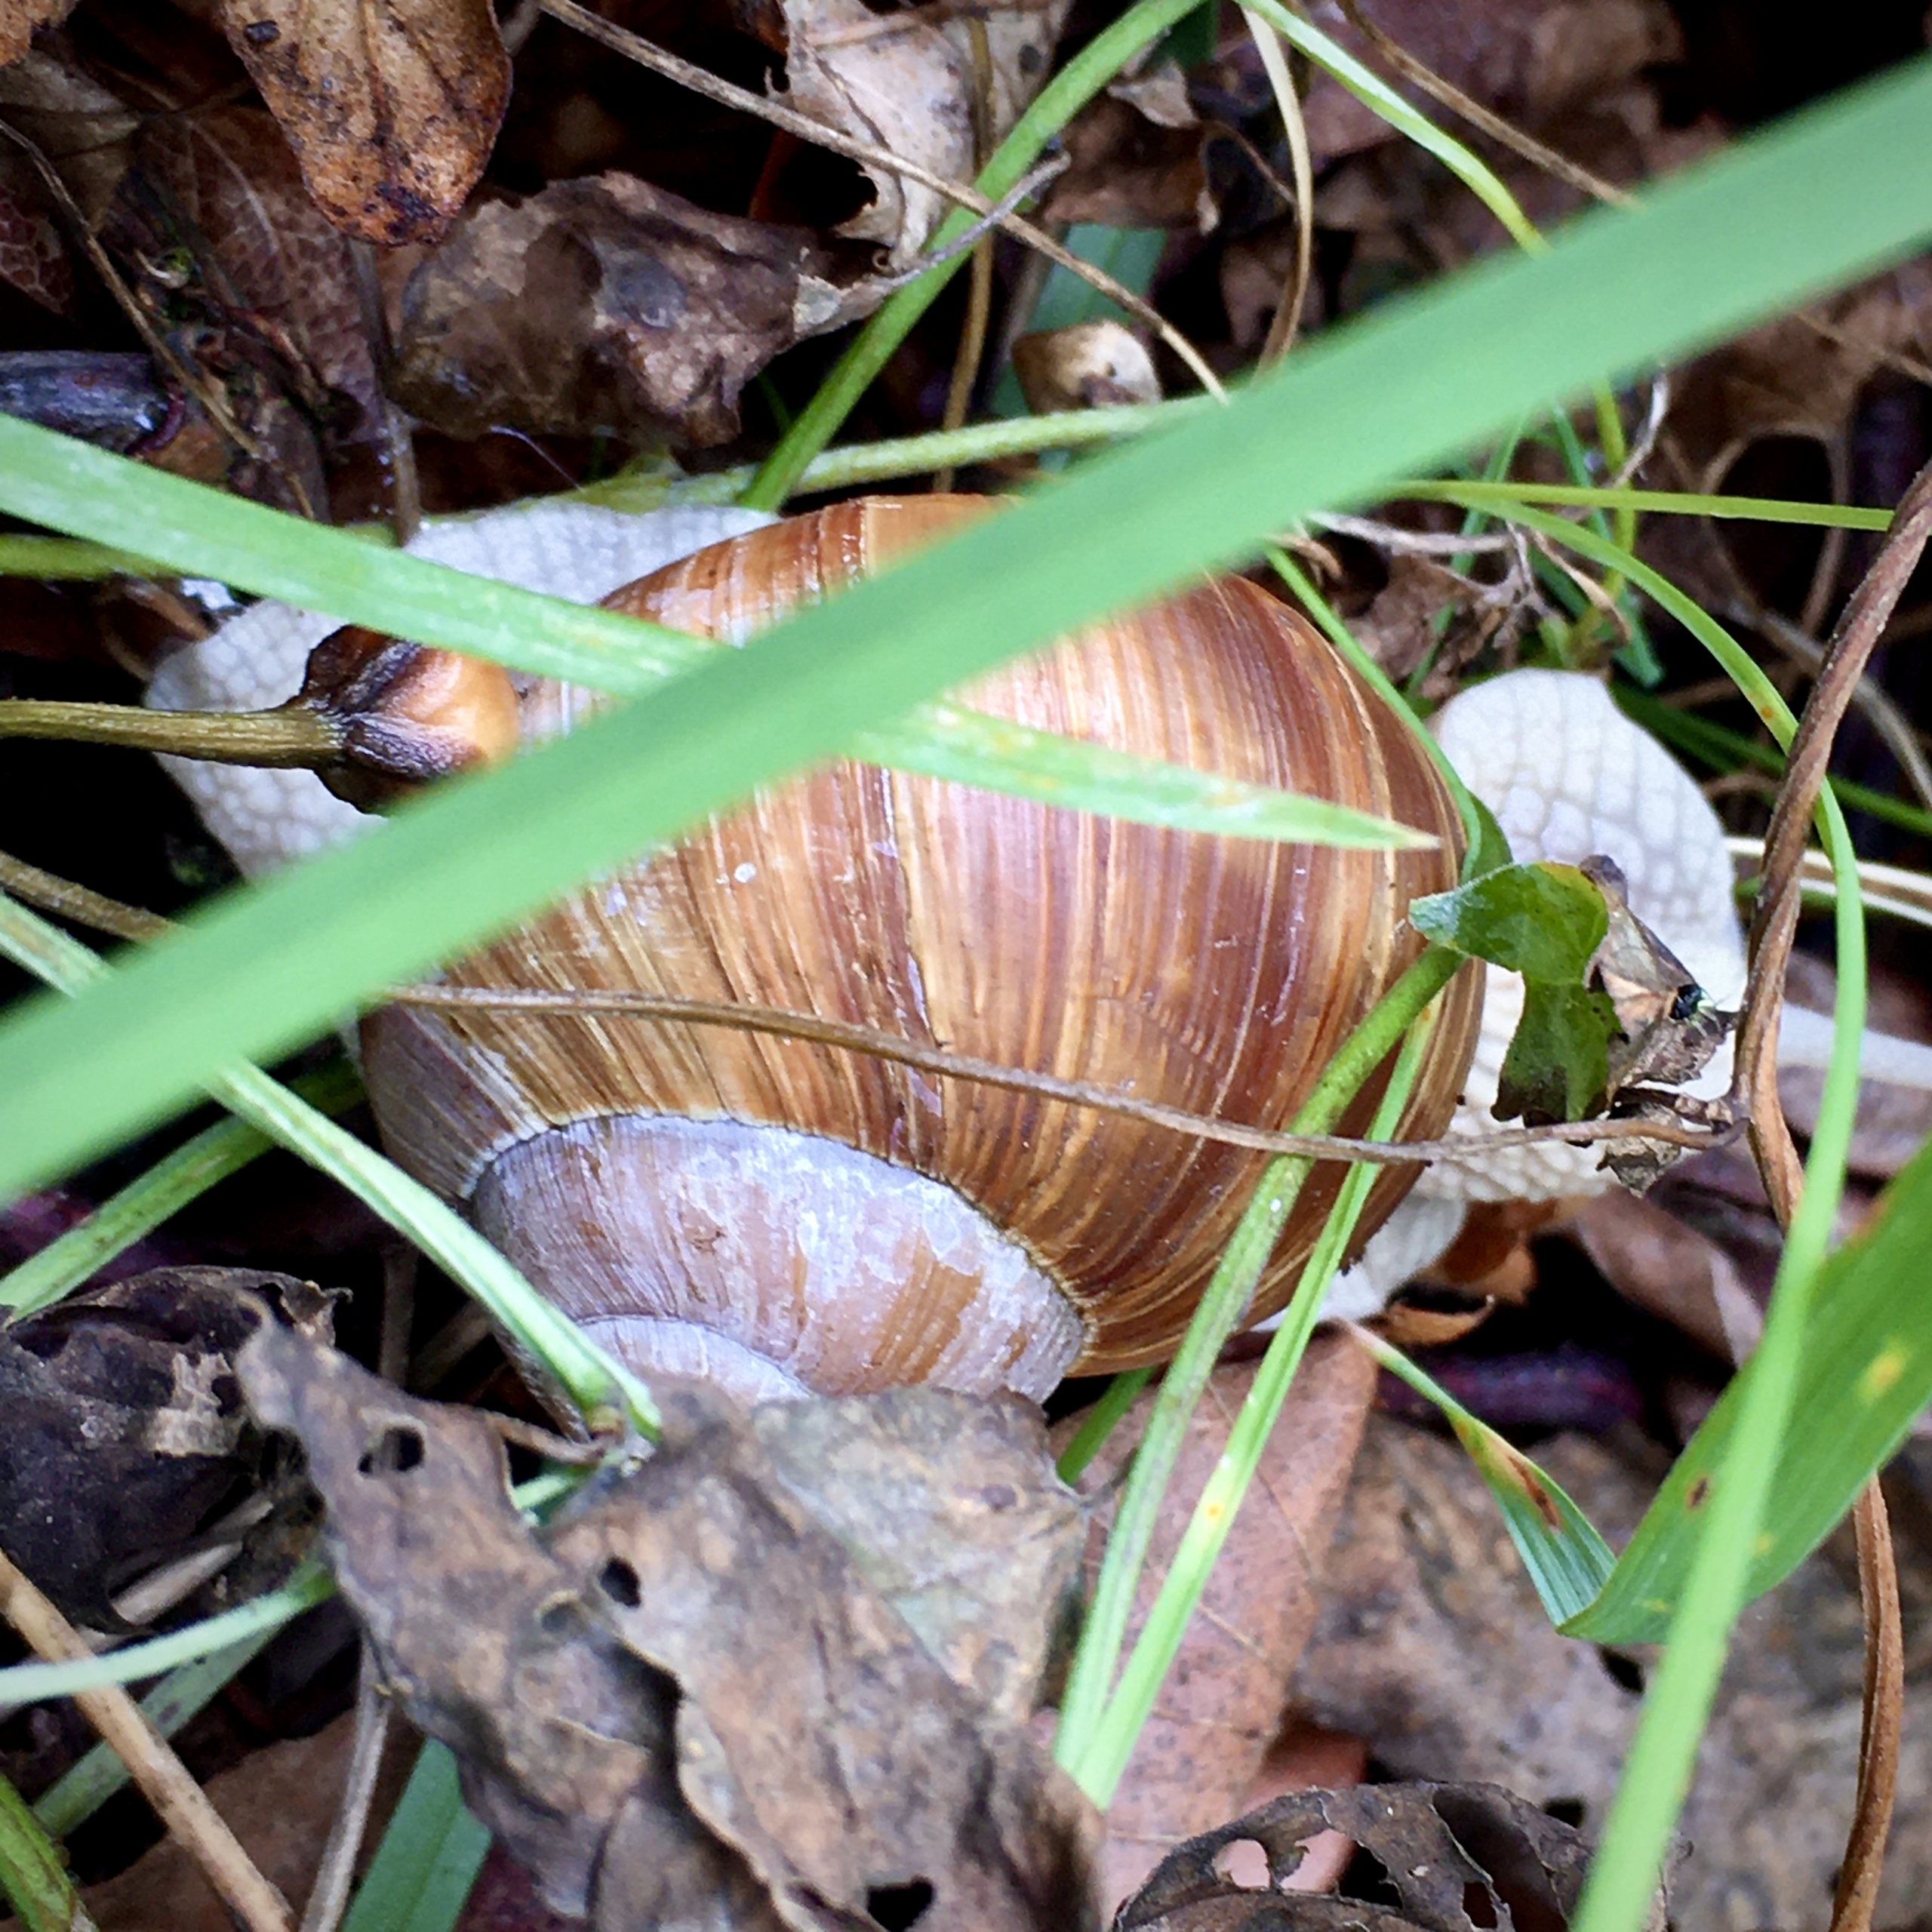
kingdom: Animalia
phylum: Mollusca
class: Gastropoda
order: Stylommatophora
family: Helicidae
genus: Helix
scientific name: Helix pomatia
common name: Vinbjergsnegl
